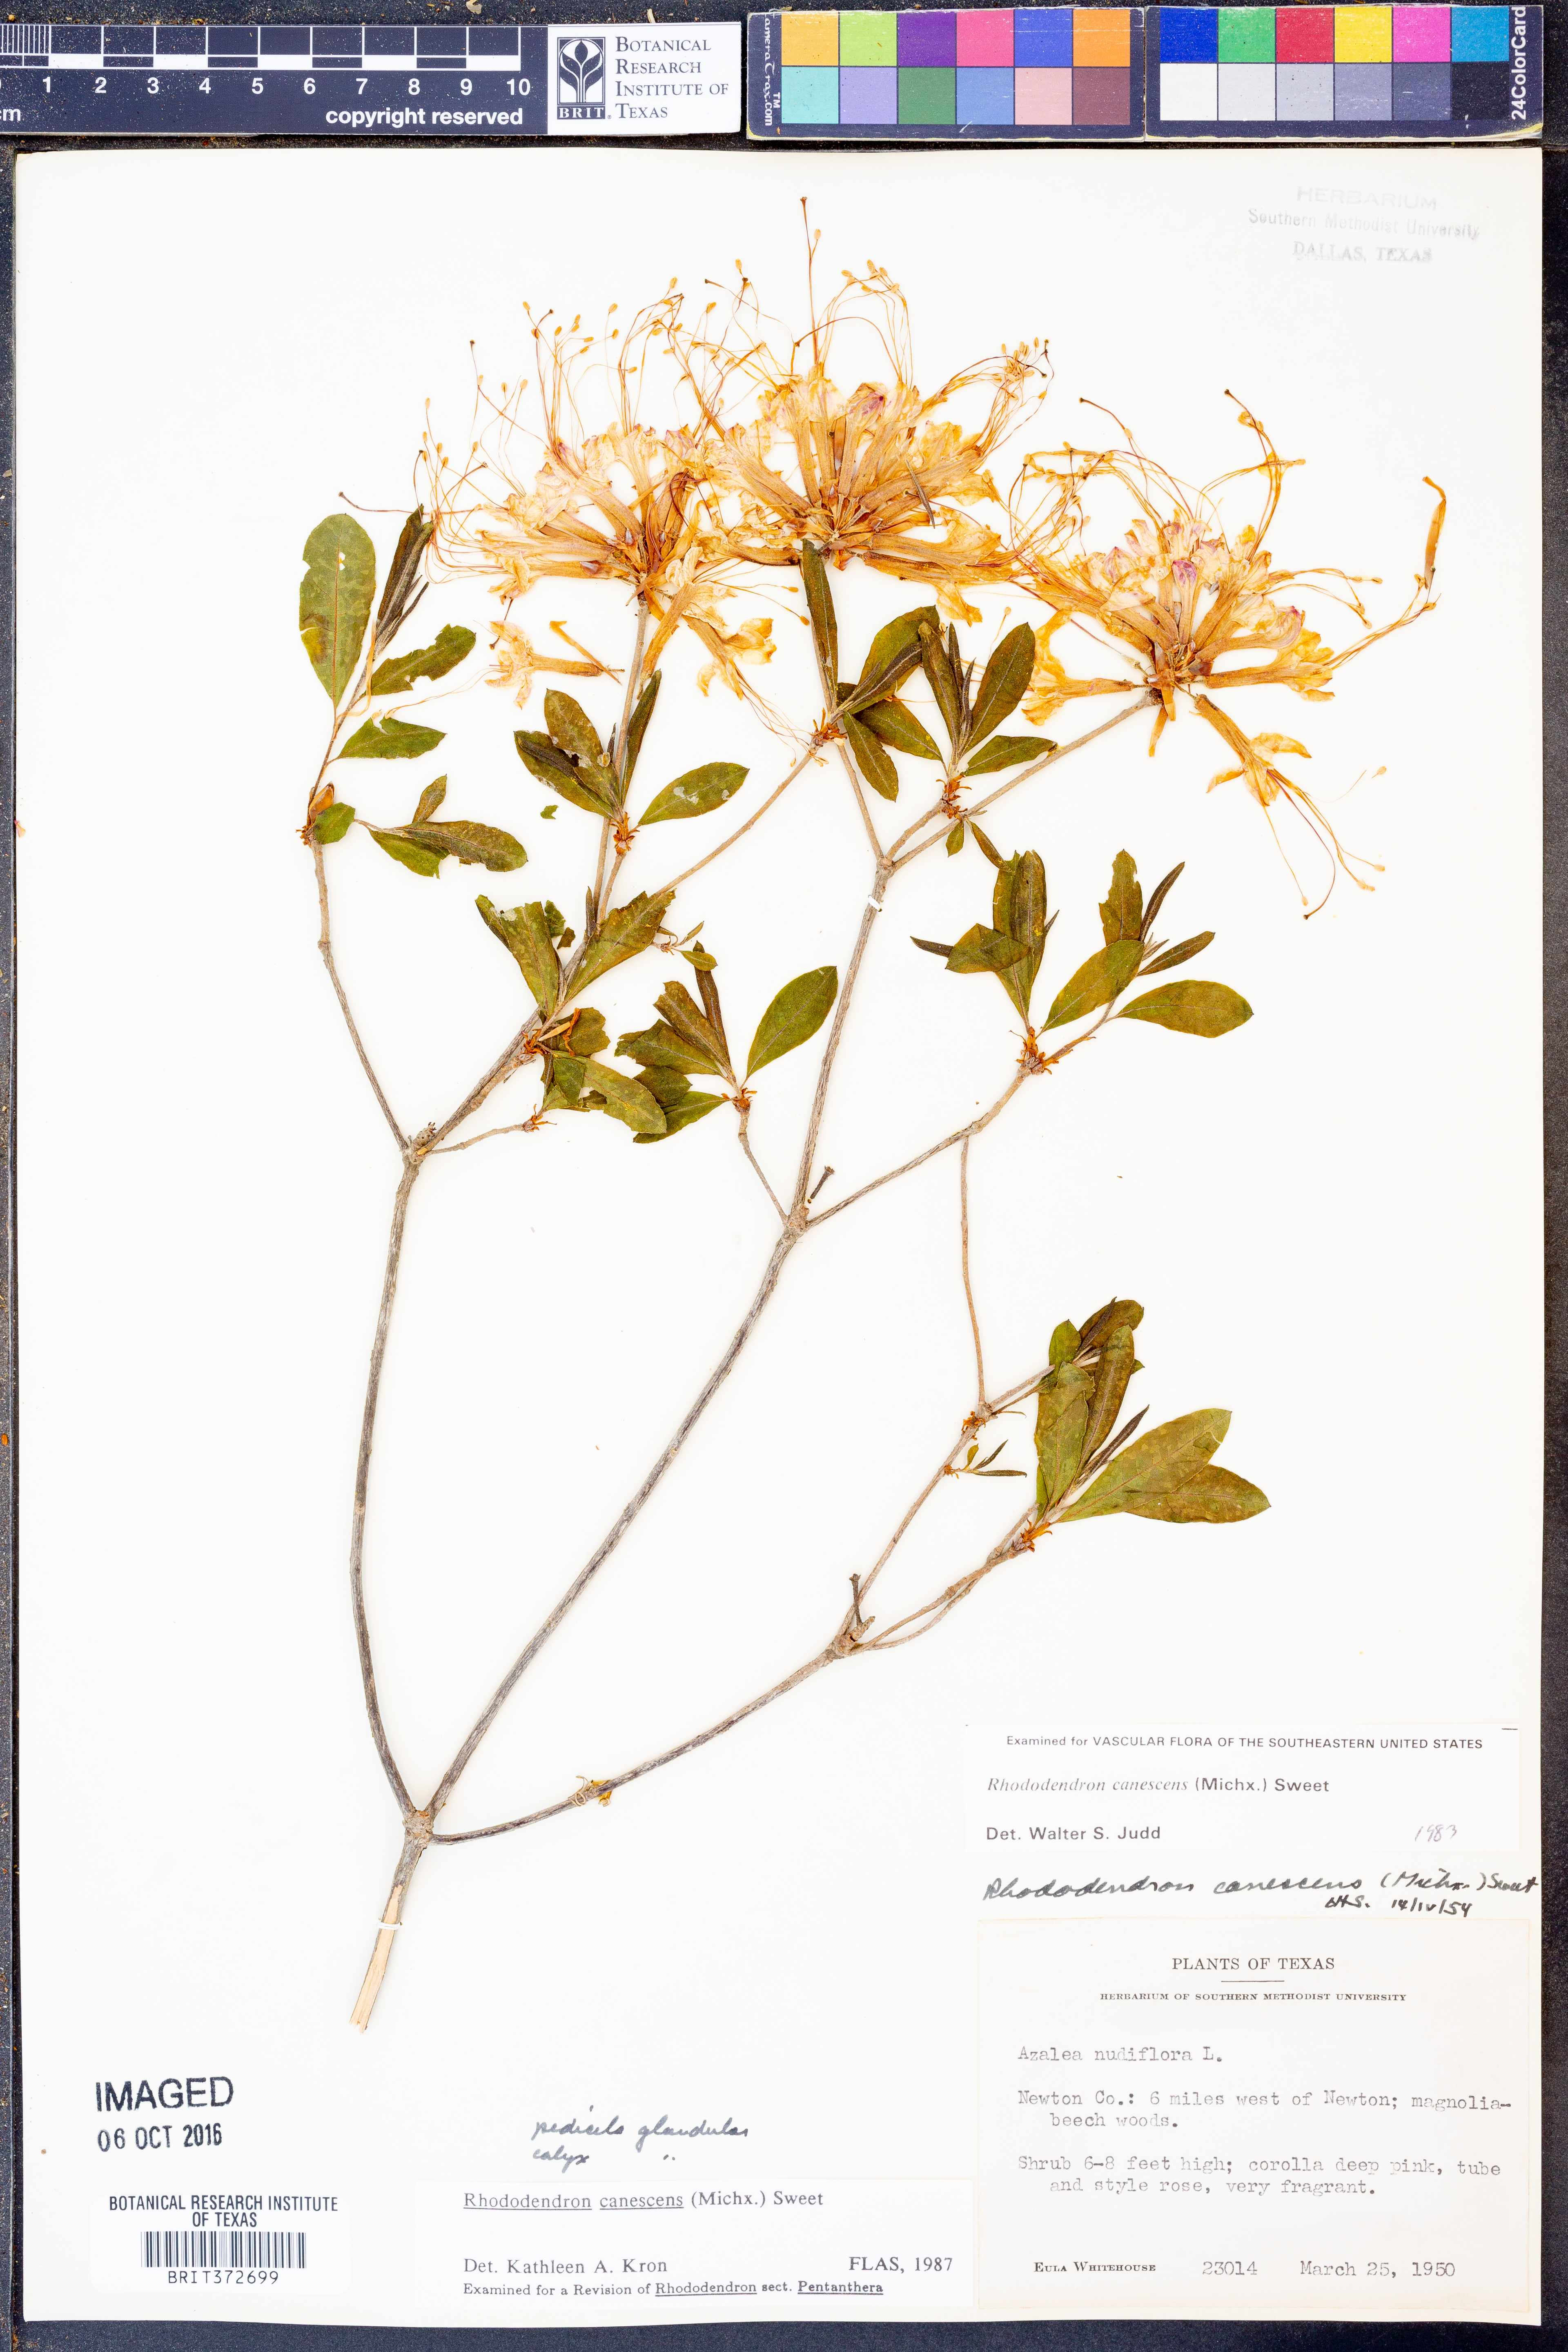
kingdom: Plantae
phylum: Tracheophyta
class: Magnoliopsida
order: Ericales
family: Ericaceae
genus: Rhododendron
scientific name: Rhododendron canescens
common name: Mountain azalea
